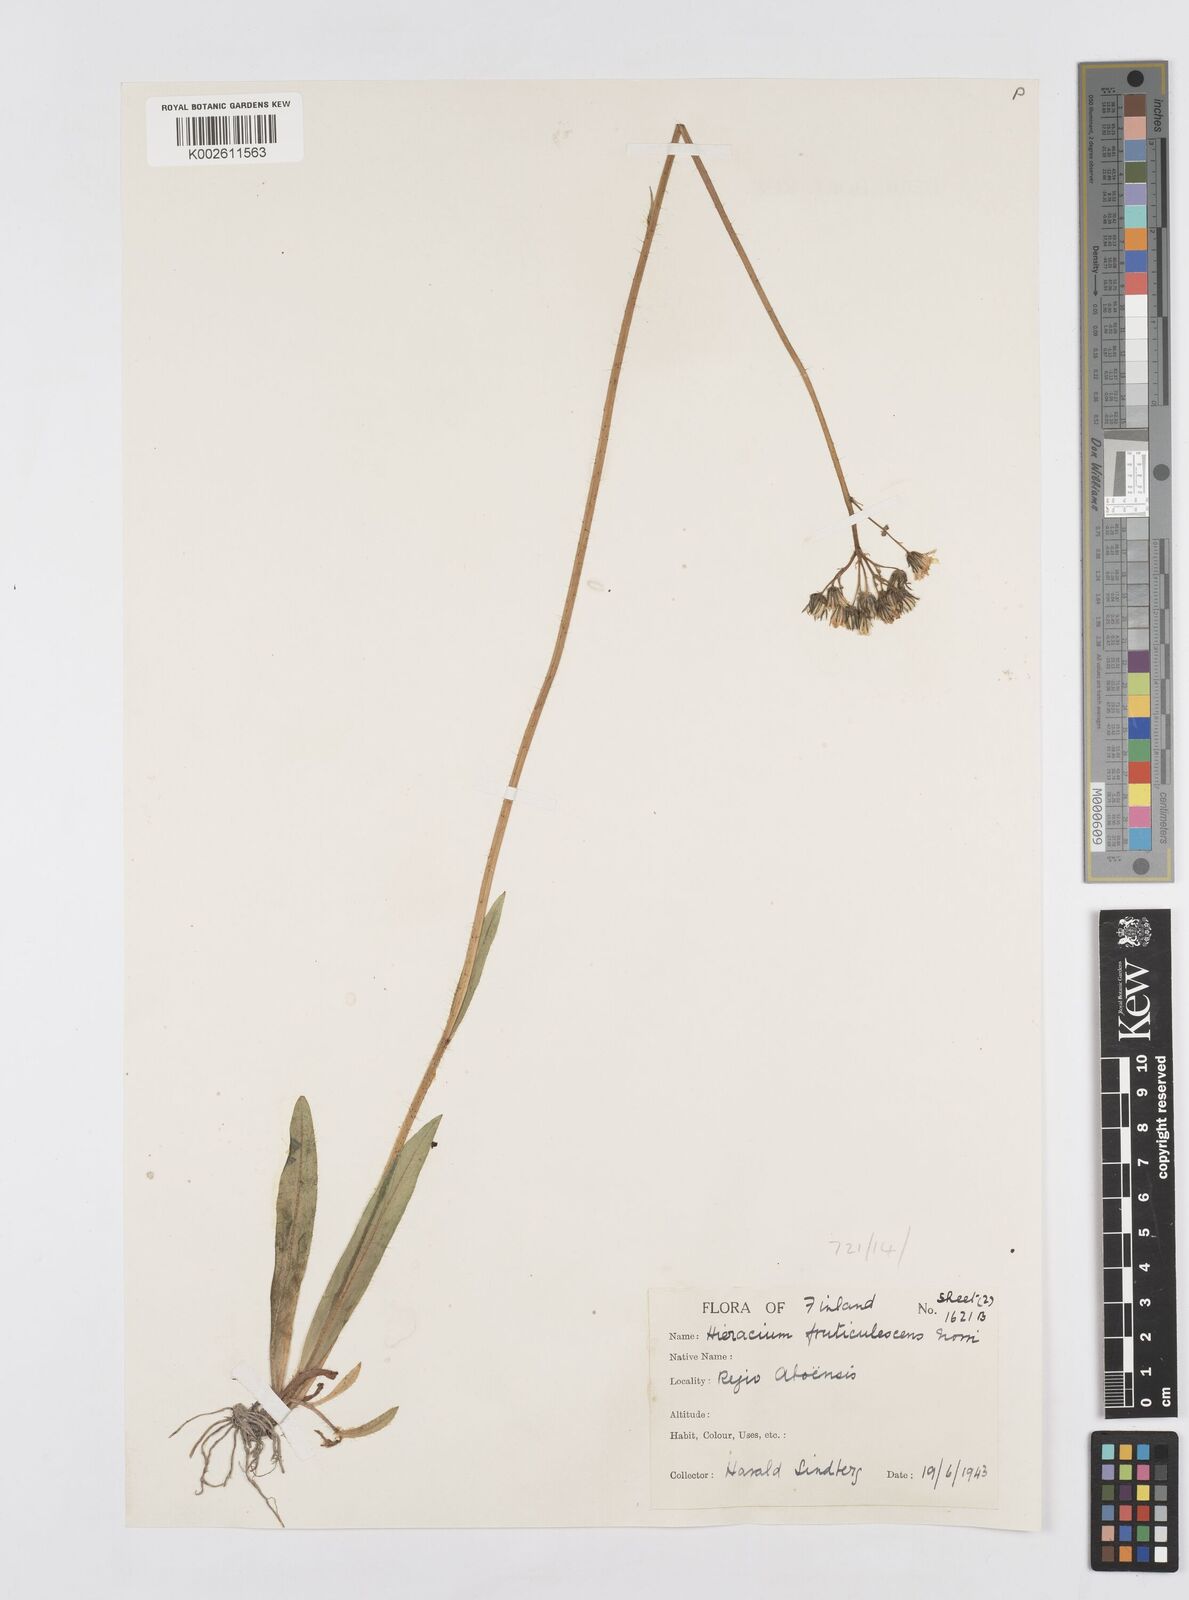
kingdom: Plantae
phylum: Tracheophyta
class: Magnoliopsida
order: Asterales
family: Asteraceae
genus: Pilosella
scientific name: Pilosella erythrochrista
